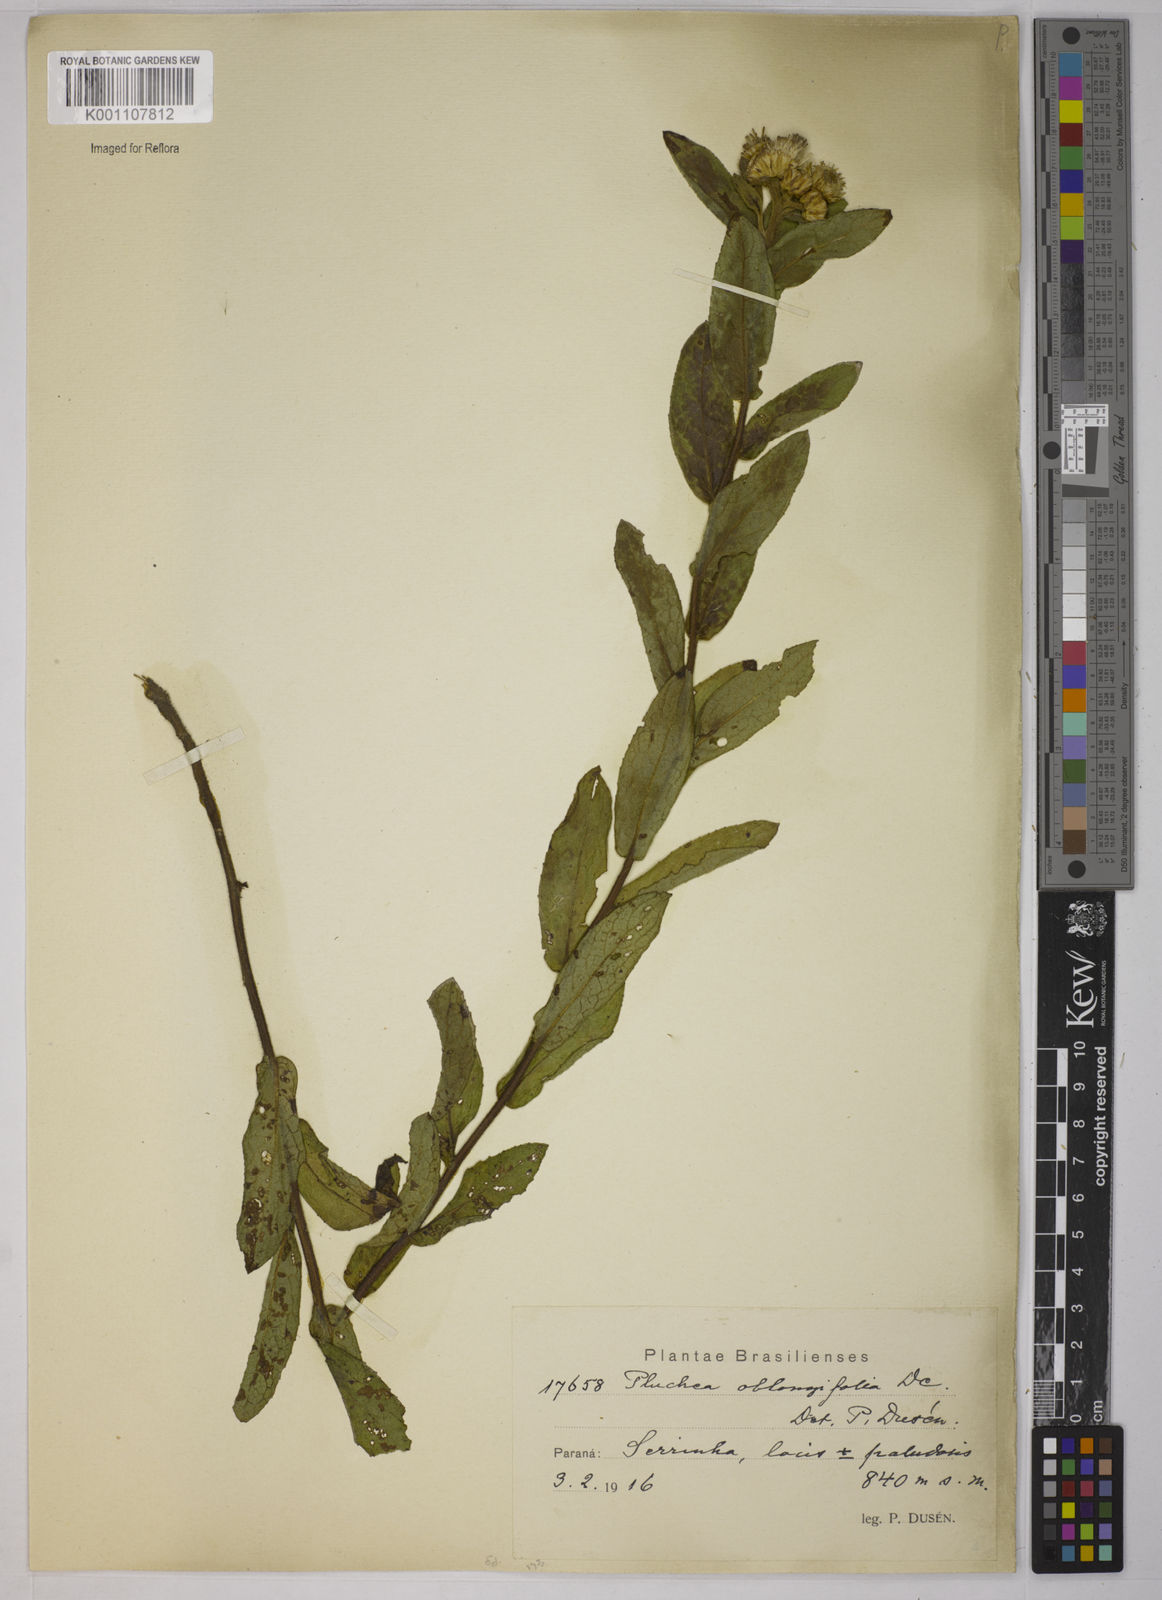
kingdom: Plantae
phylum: Tracheophyta
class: Magnoliopsida
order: Asterales
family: Asteraceae
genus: Pluchea
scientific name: Pluchea oblongifolia
